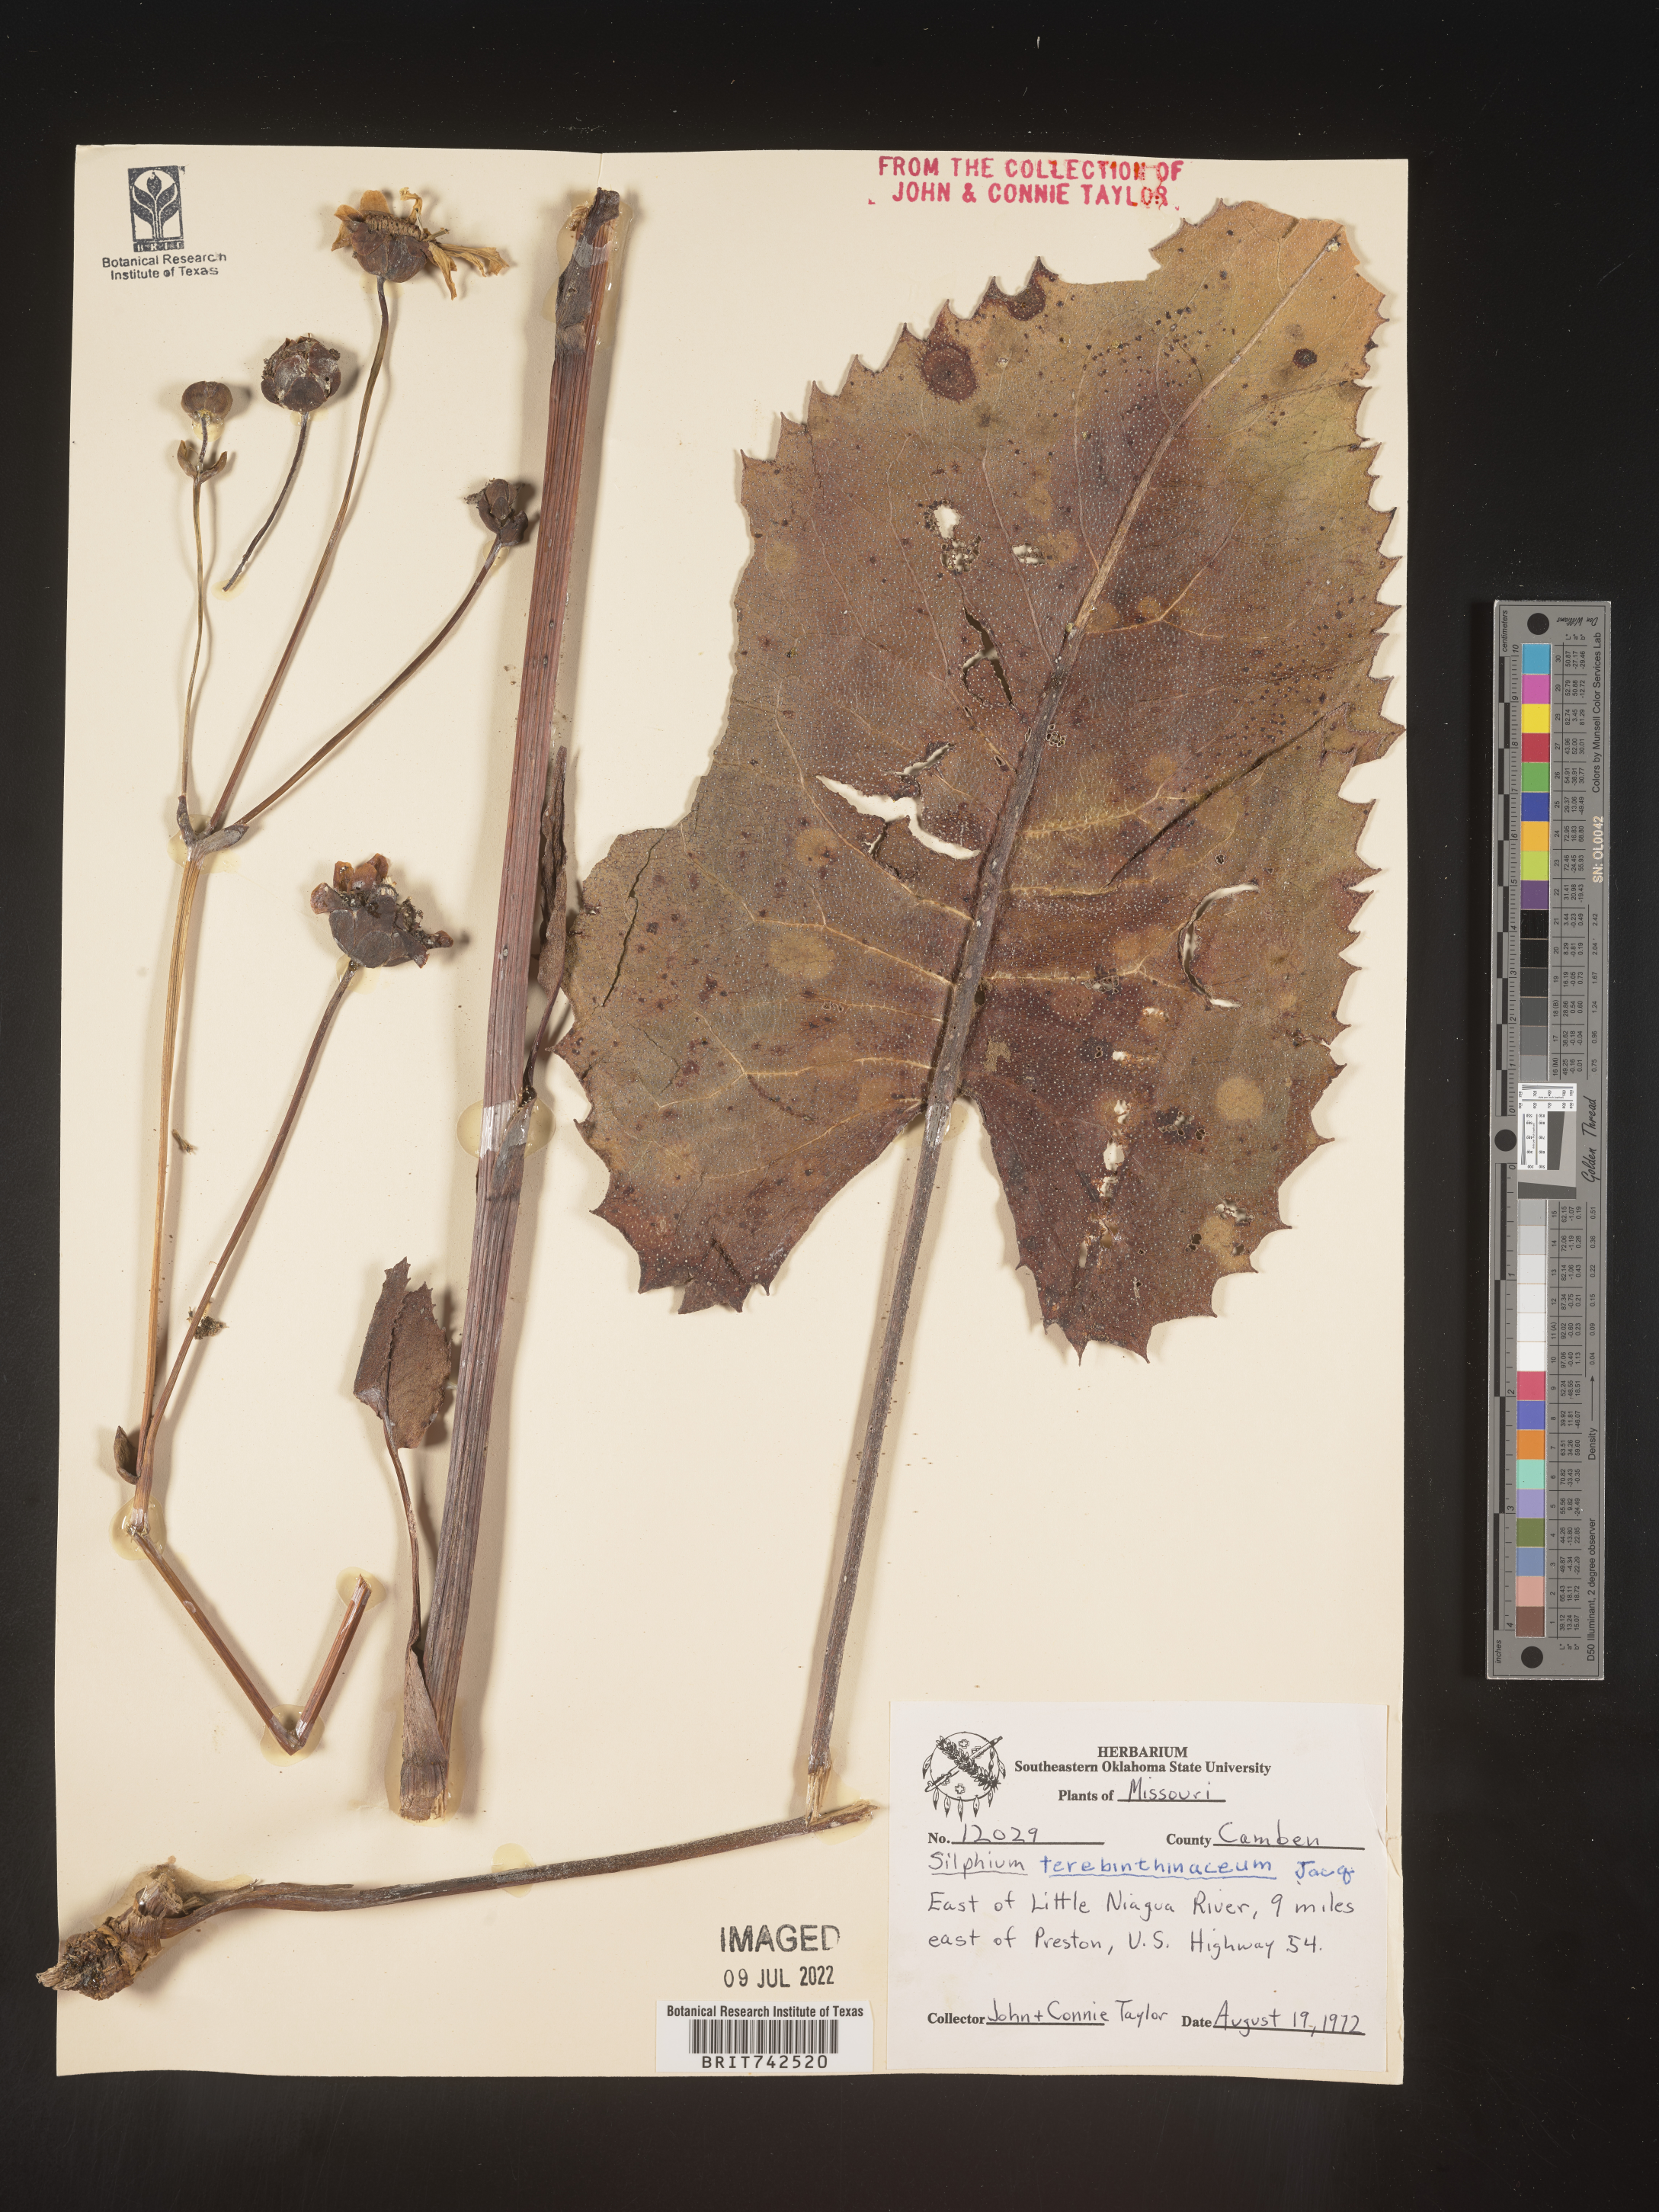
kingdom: Plantae
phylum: Tracheophyta
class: Magnoliopsida
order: Asterales
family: Asteraceae
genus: Silphium
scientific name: Silphium terebinthinaceum
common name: Basal-leaf rosinweed
